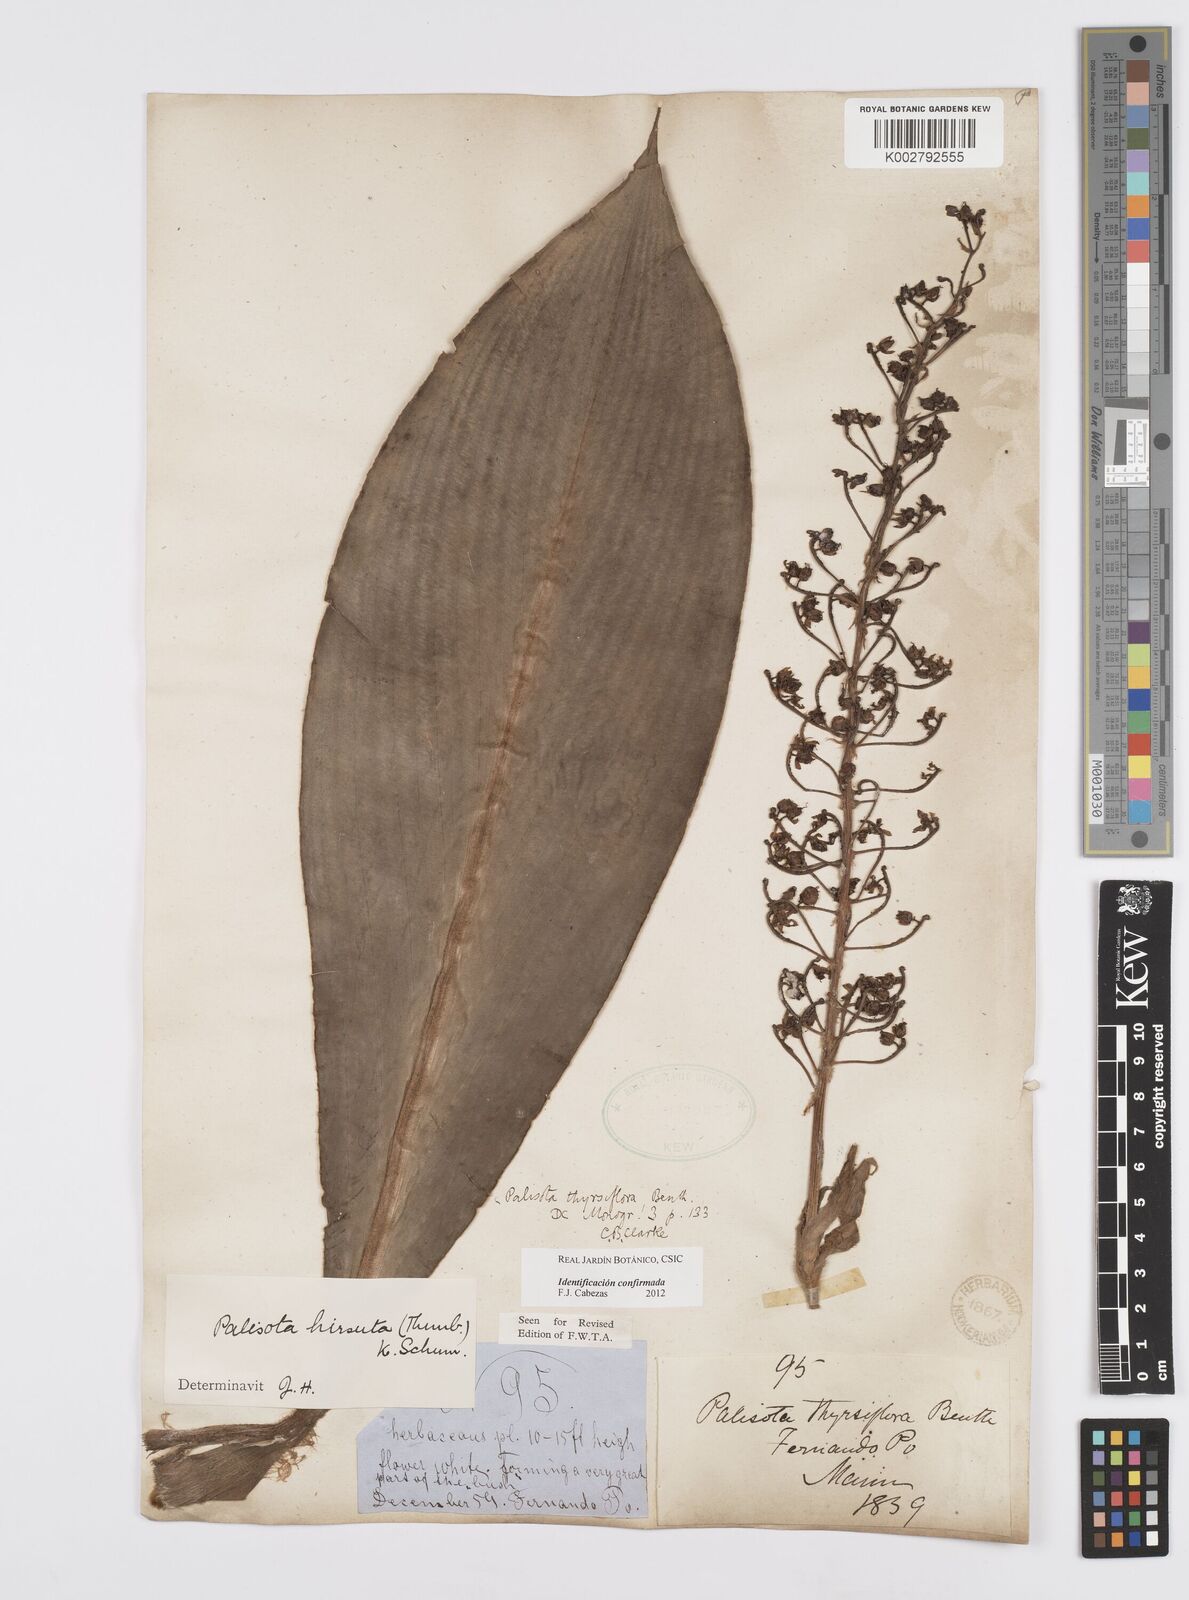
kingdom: Plantae
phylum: Tracheophyta
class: Liliopsida
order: Commelinales
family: Commelinaceae
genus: Palisota
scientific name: Palisota hirsuta
